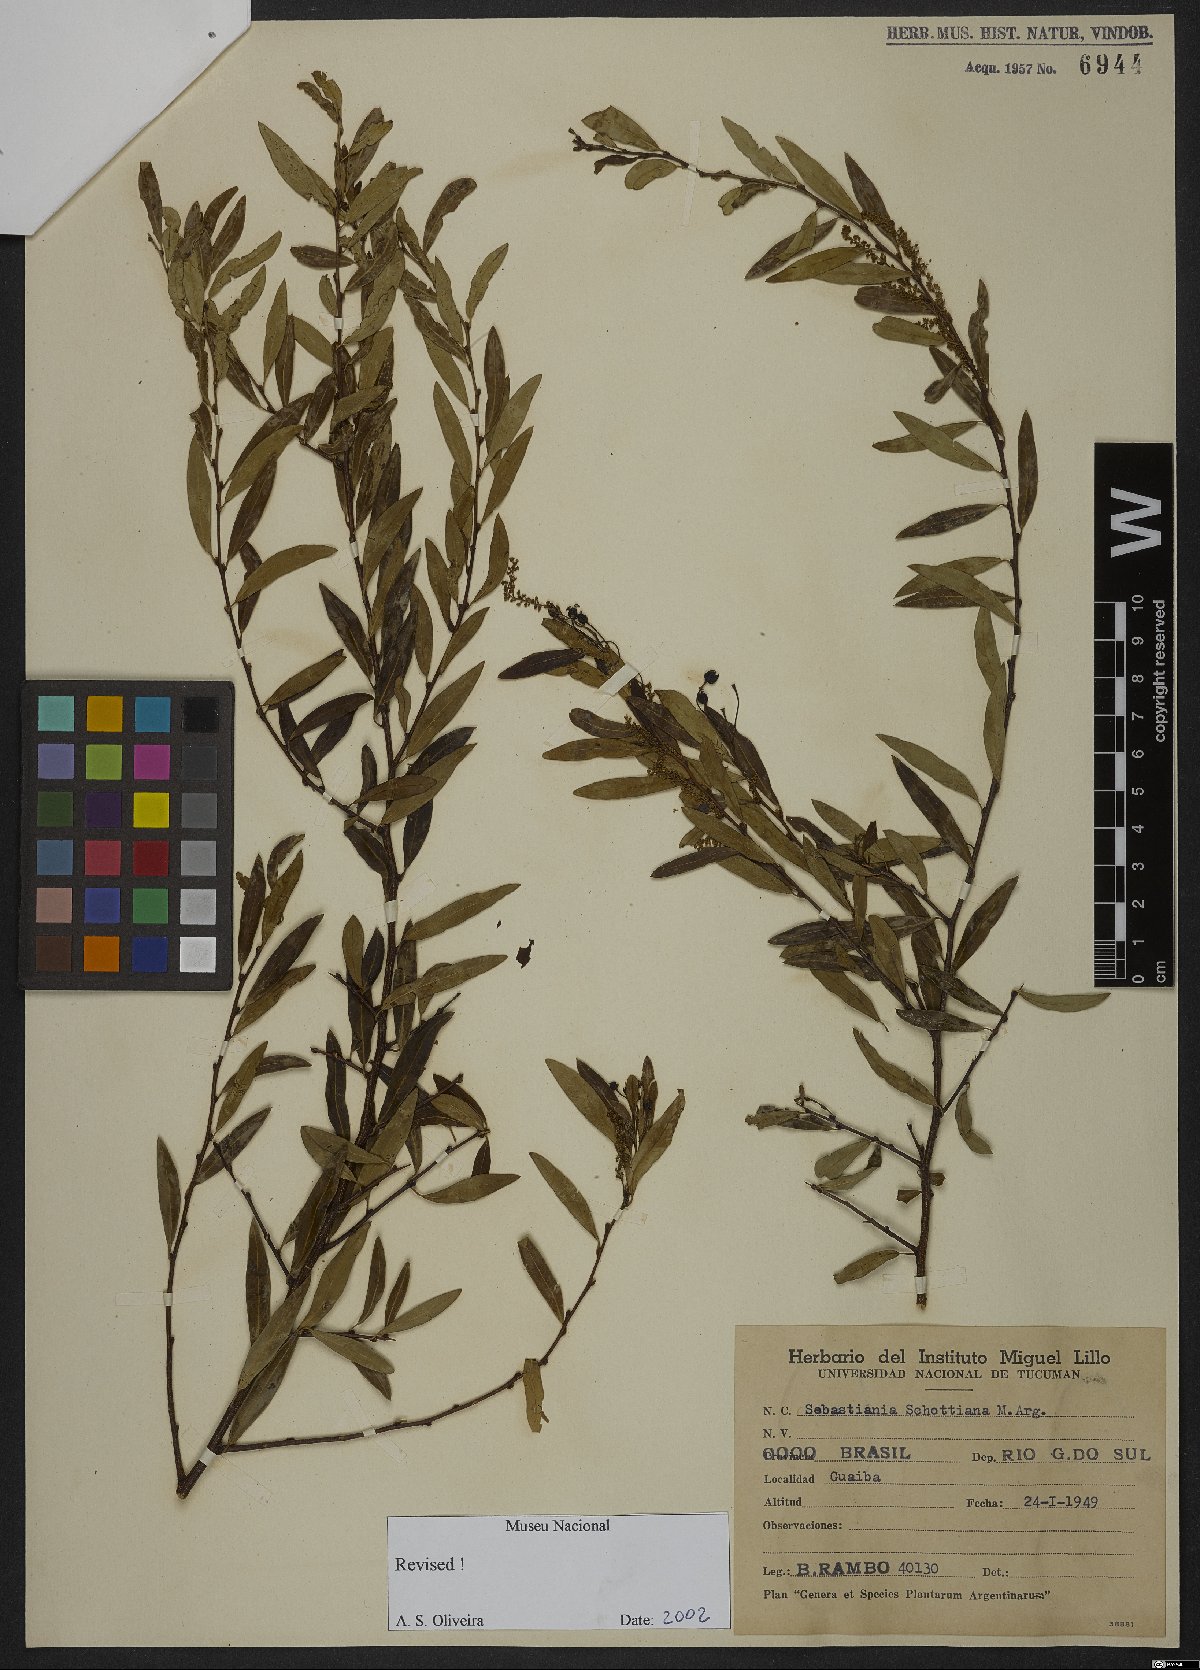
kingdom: Plantae
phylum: Tracheophyta
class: Magnoliopsida
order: Malpighiales
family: Euphorbiaceae
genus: Sebastiania
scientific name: Sebastiania schottiana
